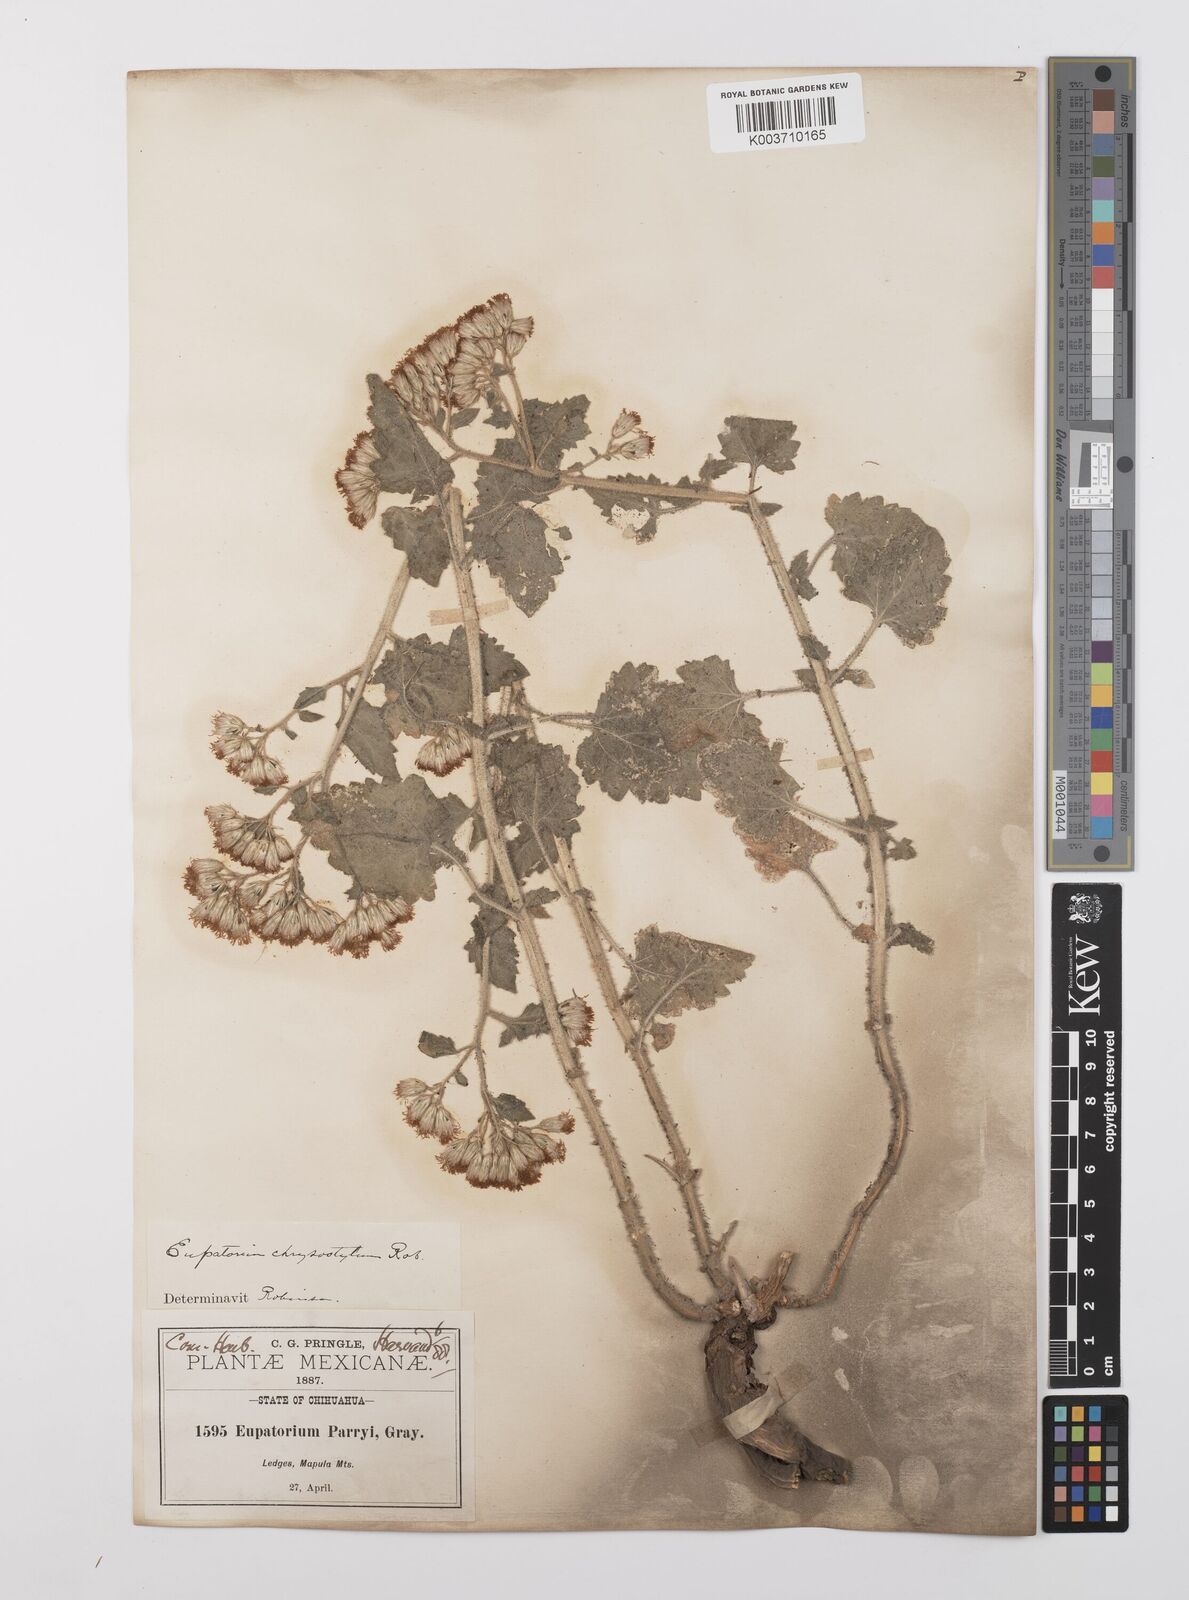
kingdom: Plantae
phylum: Tracheophyta
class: Magnoliopsida
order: Asterales
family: Asteraceae
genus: Flyriella
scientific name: Flyriella parryi
